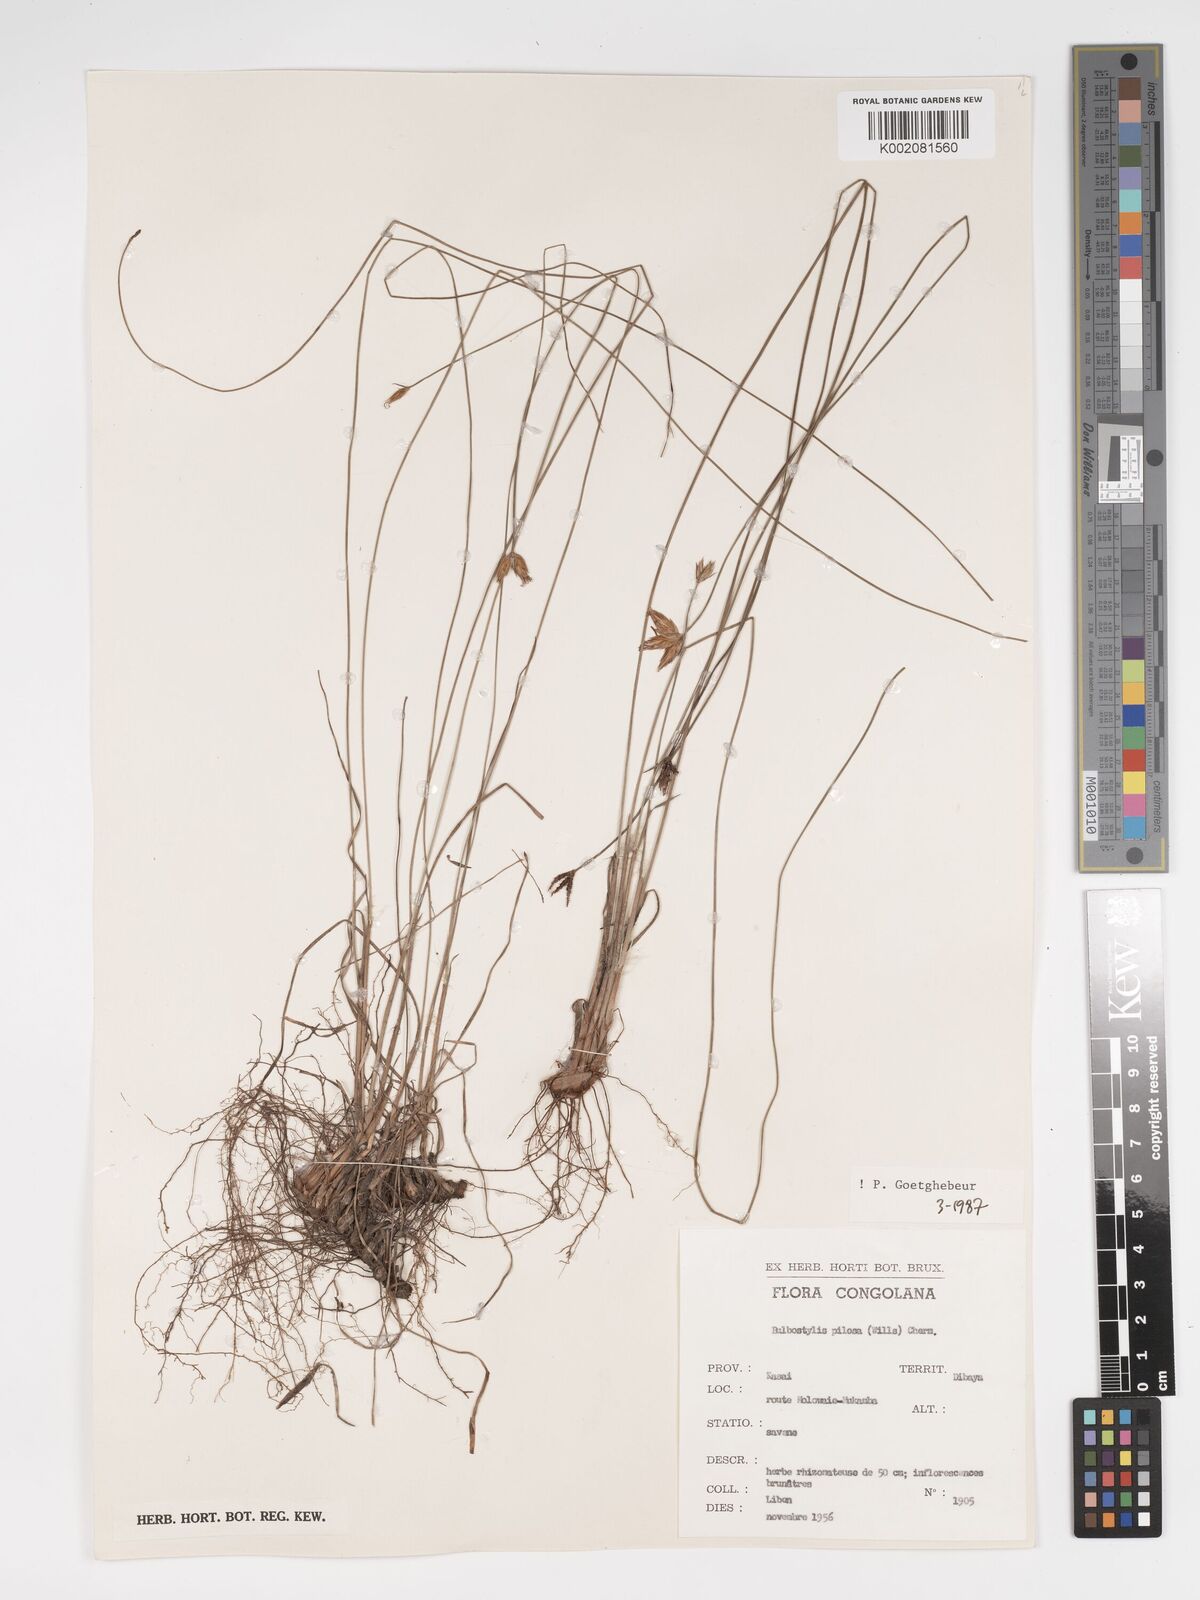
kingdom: Plantae
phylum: Tracheophyta
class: Liliopsida
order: Poales
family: Cyperaceae
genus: Bulbostylis
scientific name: Bulbostylis pilosa
